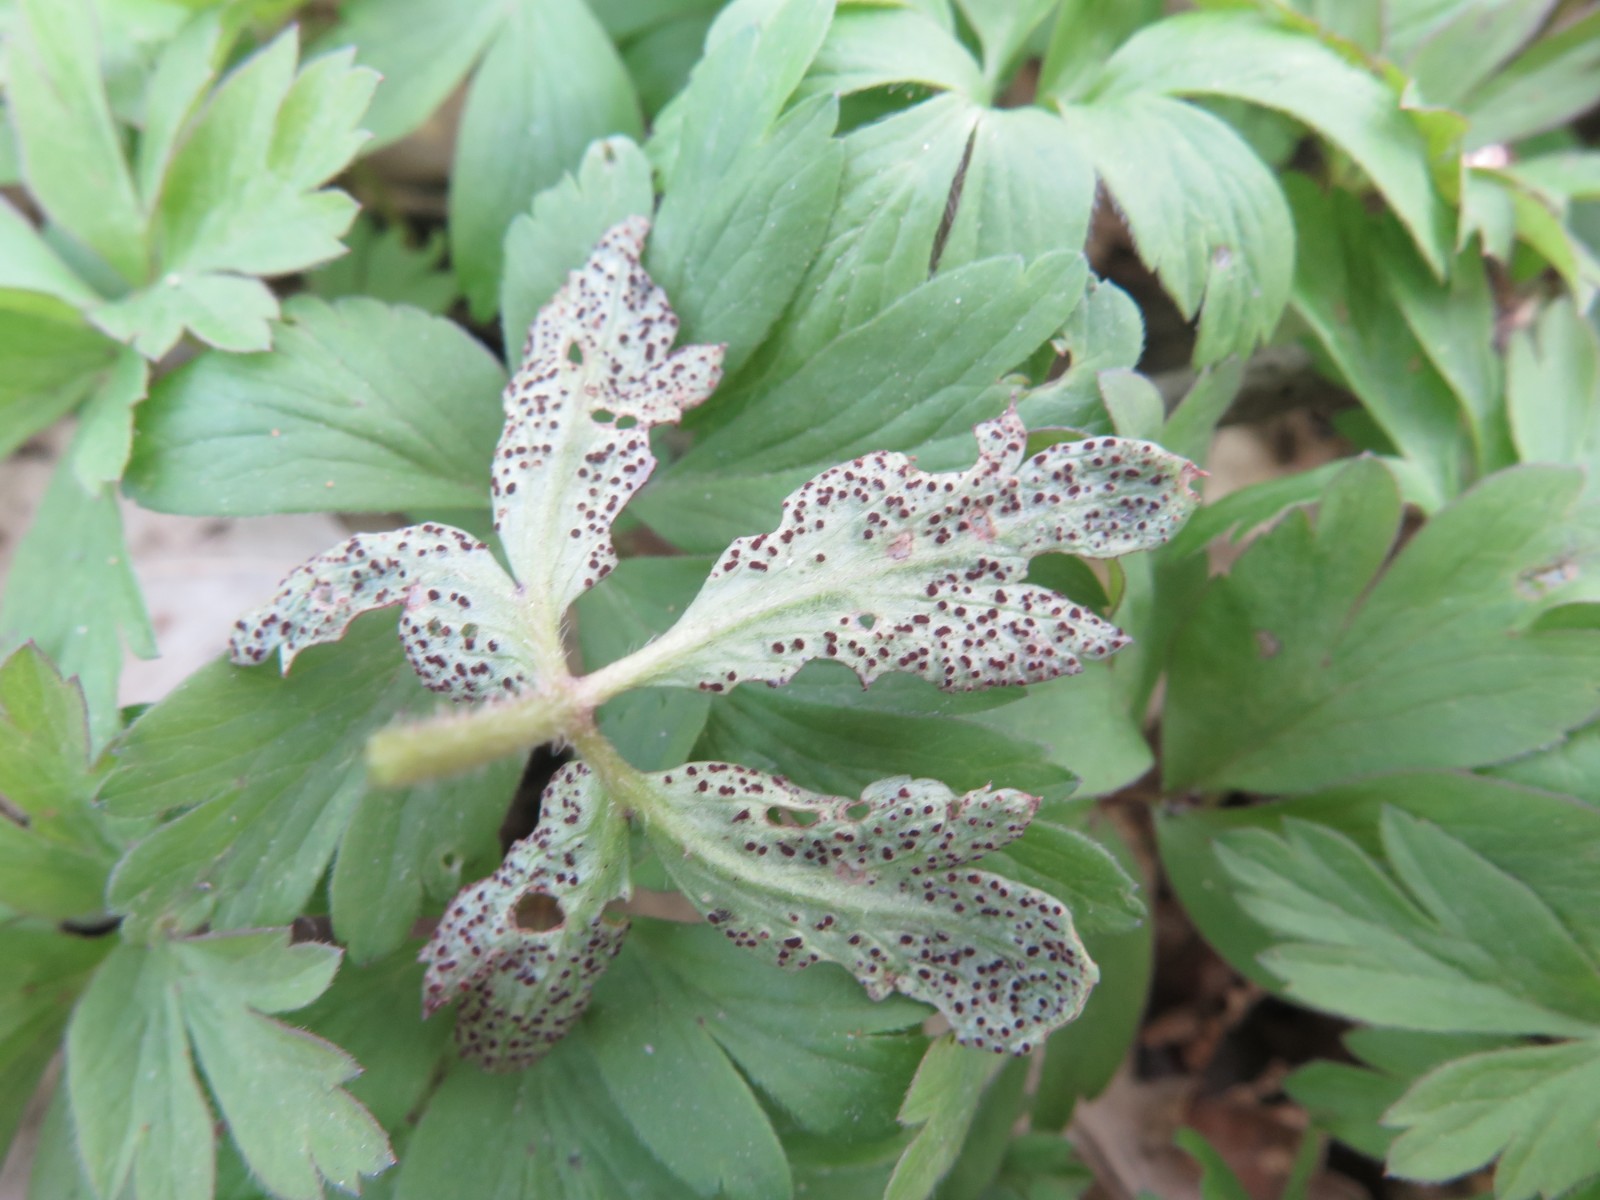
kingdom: Fungi
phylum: Basidiomycota
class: Pucciniomycetes
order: Pucciniales
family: Tranzscheliaceae
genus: Tranzschelia
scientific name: Tranzschelia anemones
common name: anemone-knæksporerust
